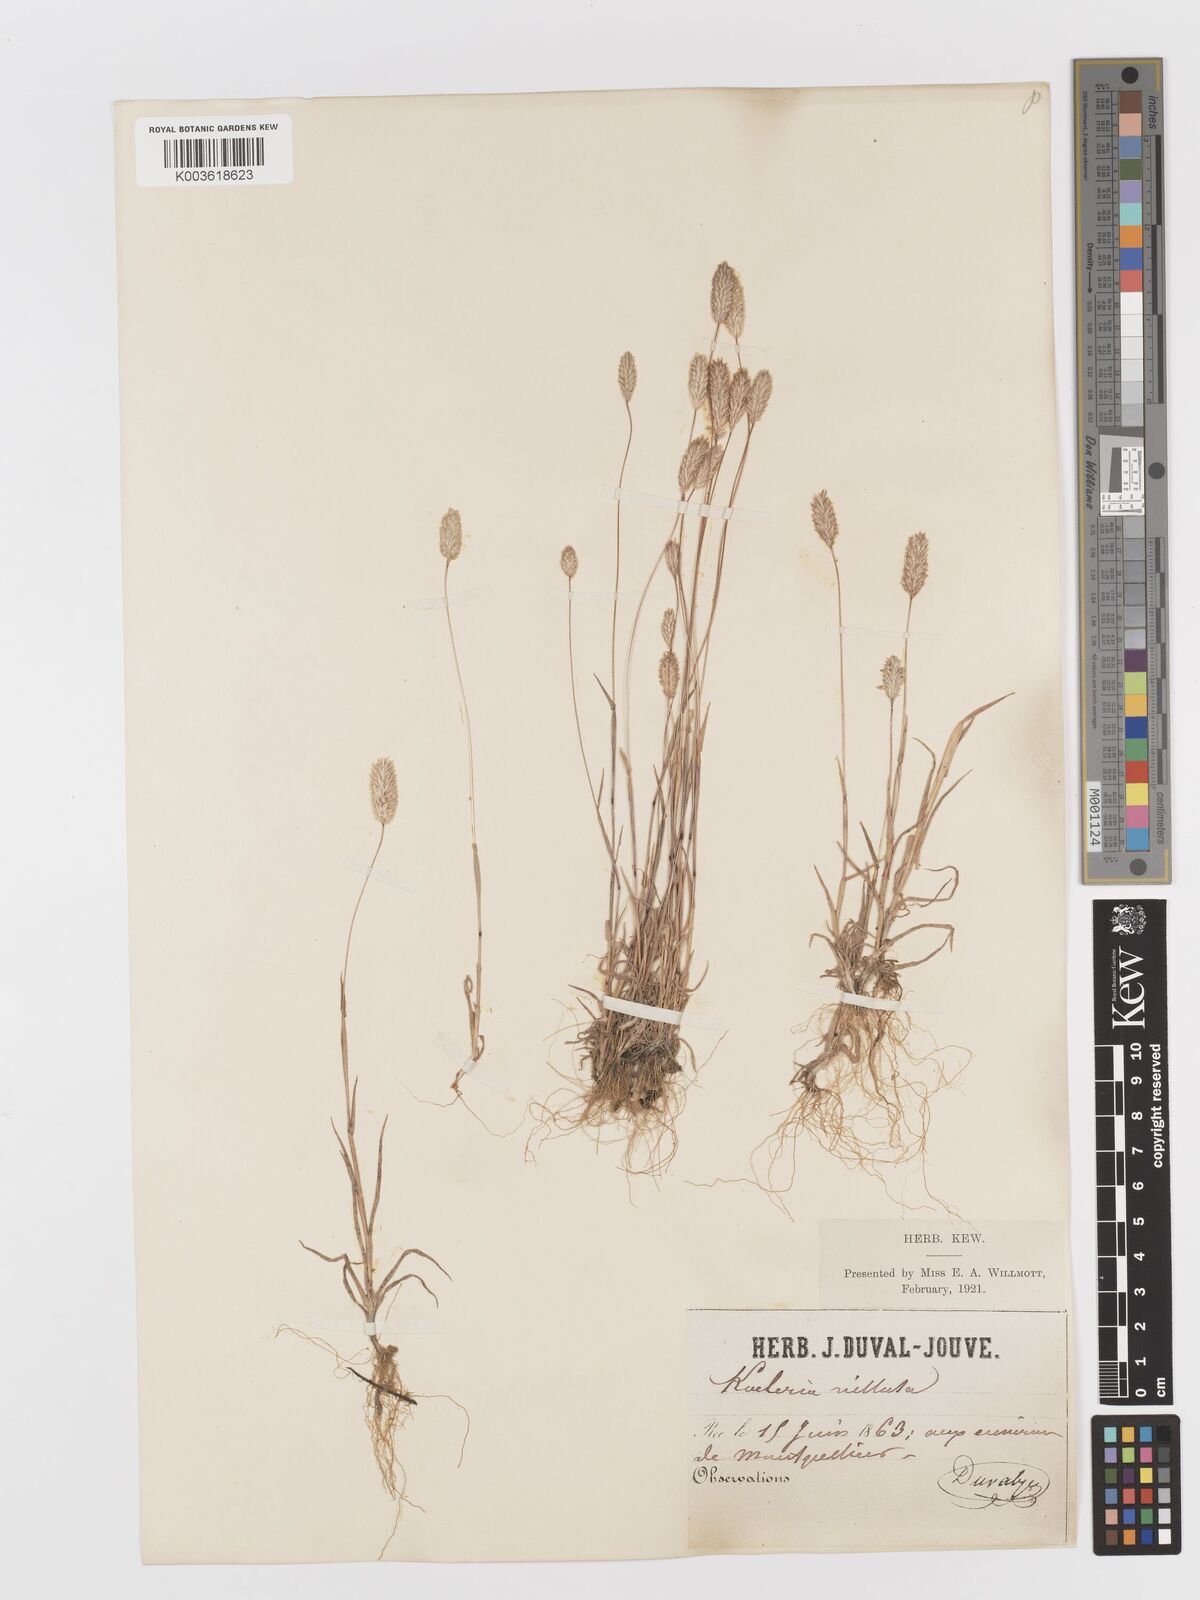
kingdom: Plantae
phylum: Tracheophyta
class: Liliopsida
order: Poales
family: Poaceae
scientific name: Poaceae
